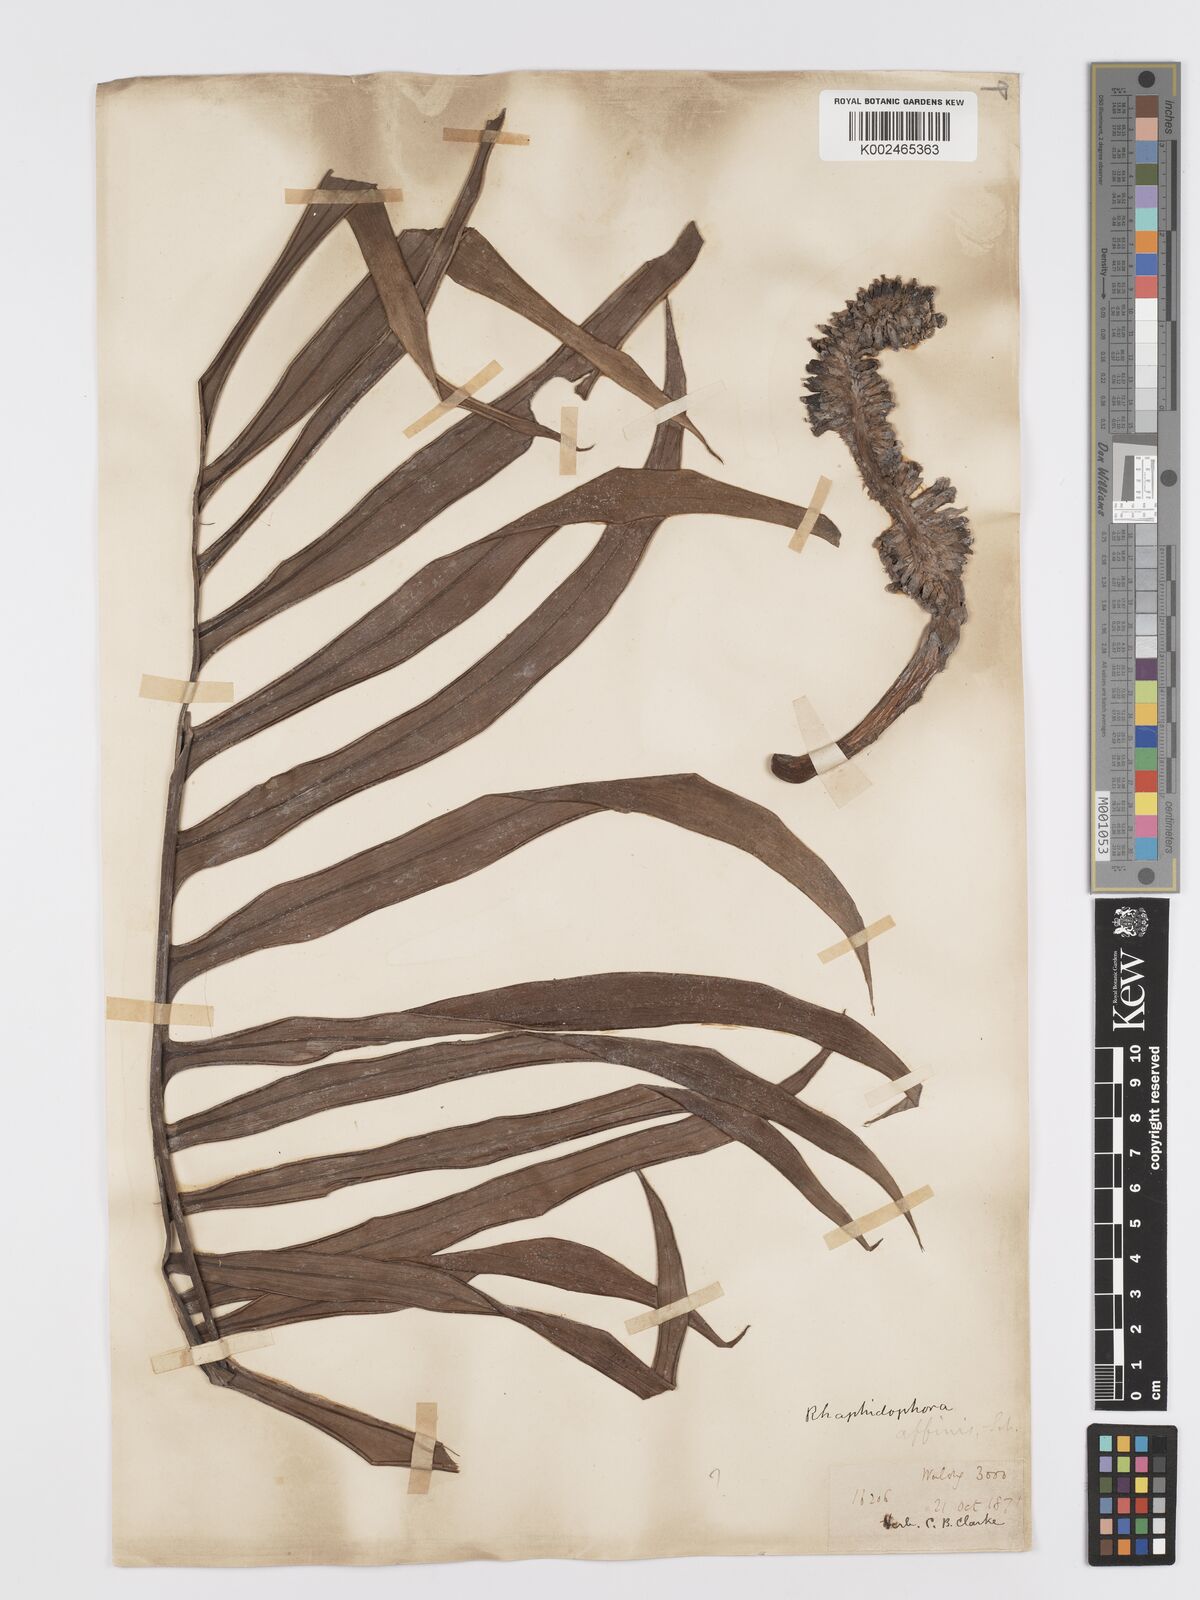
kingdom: Plantae
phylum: Tracheophyta
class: Liliopsida
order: Alismatales
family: Araceae
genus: Rhaphidophora
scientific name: Rhaphidophora decursiva
